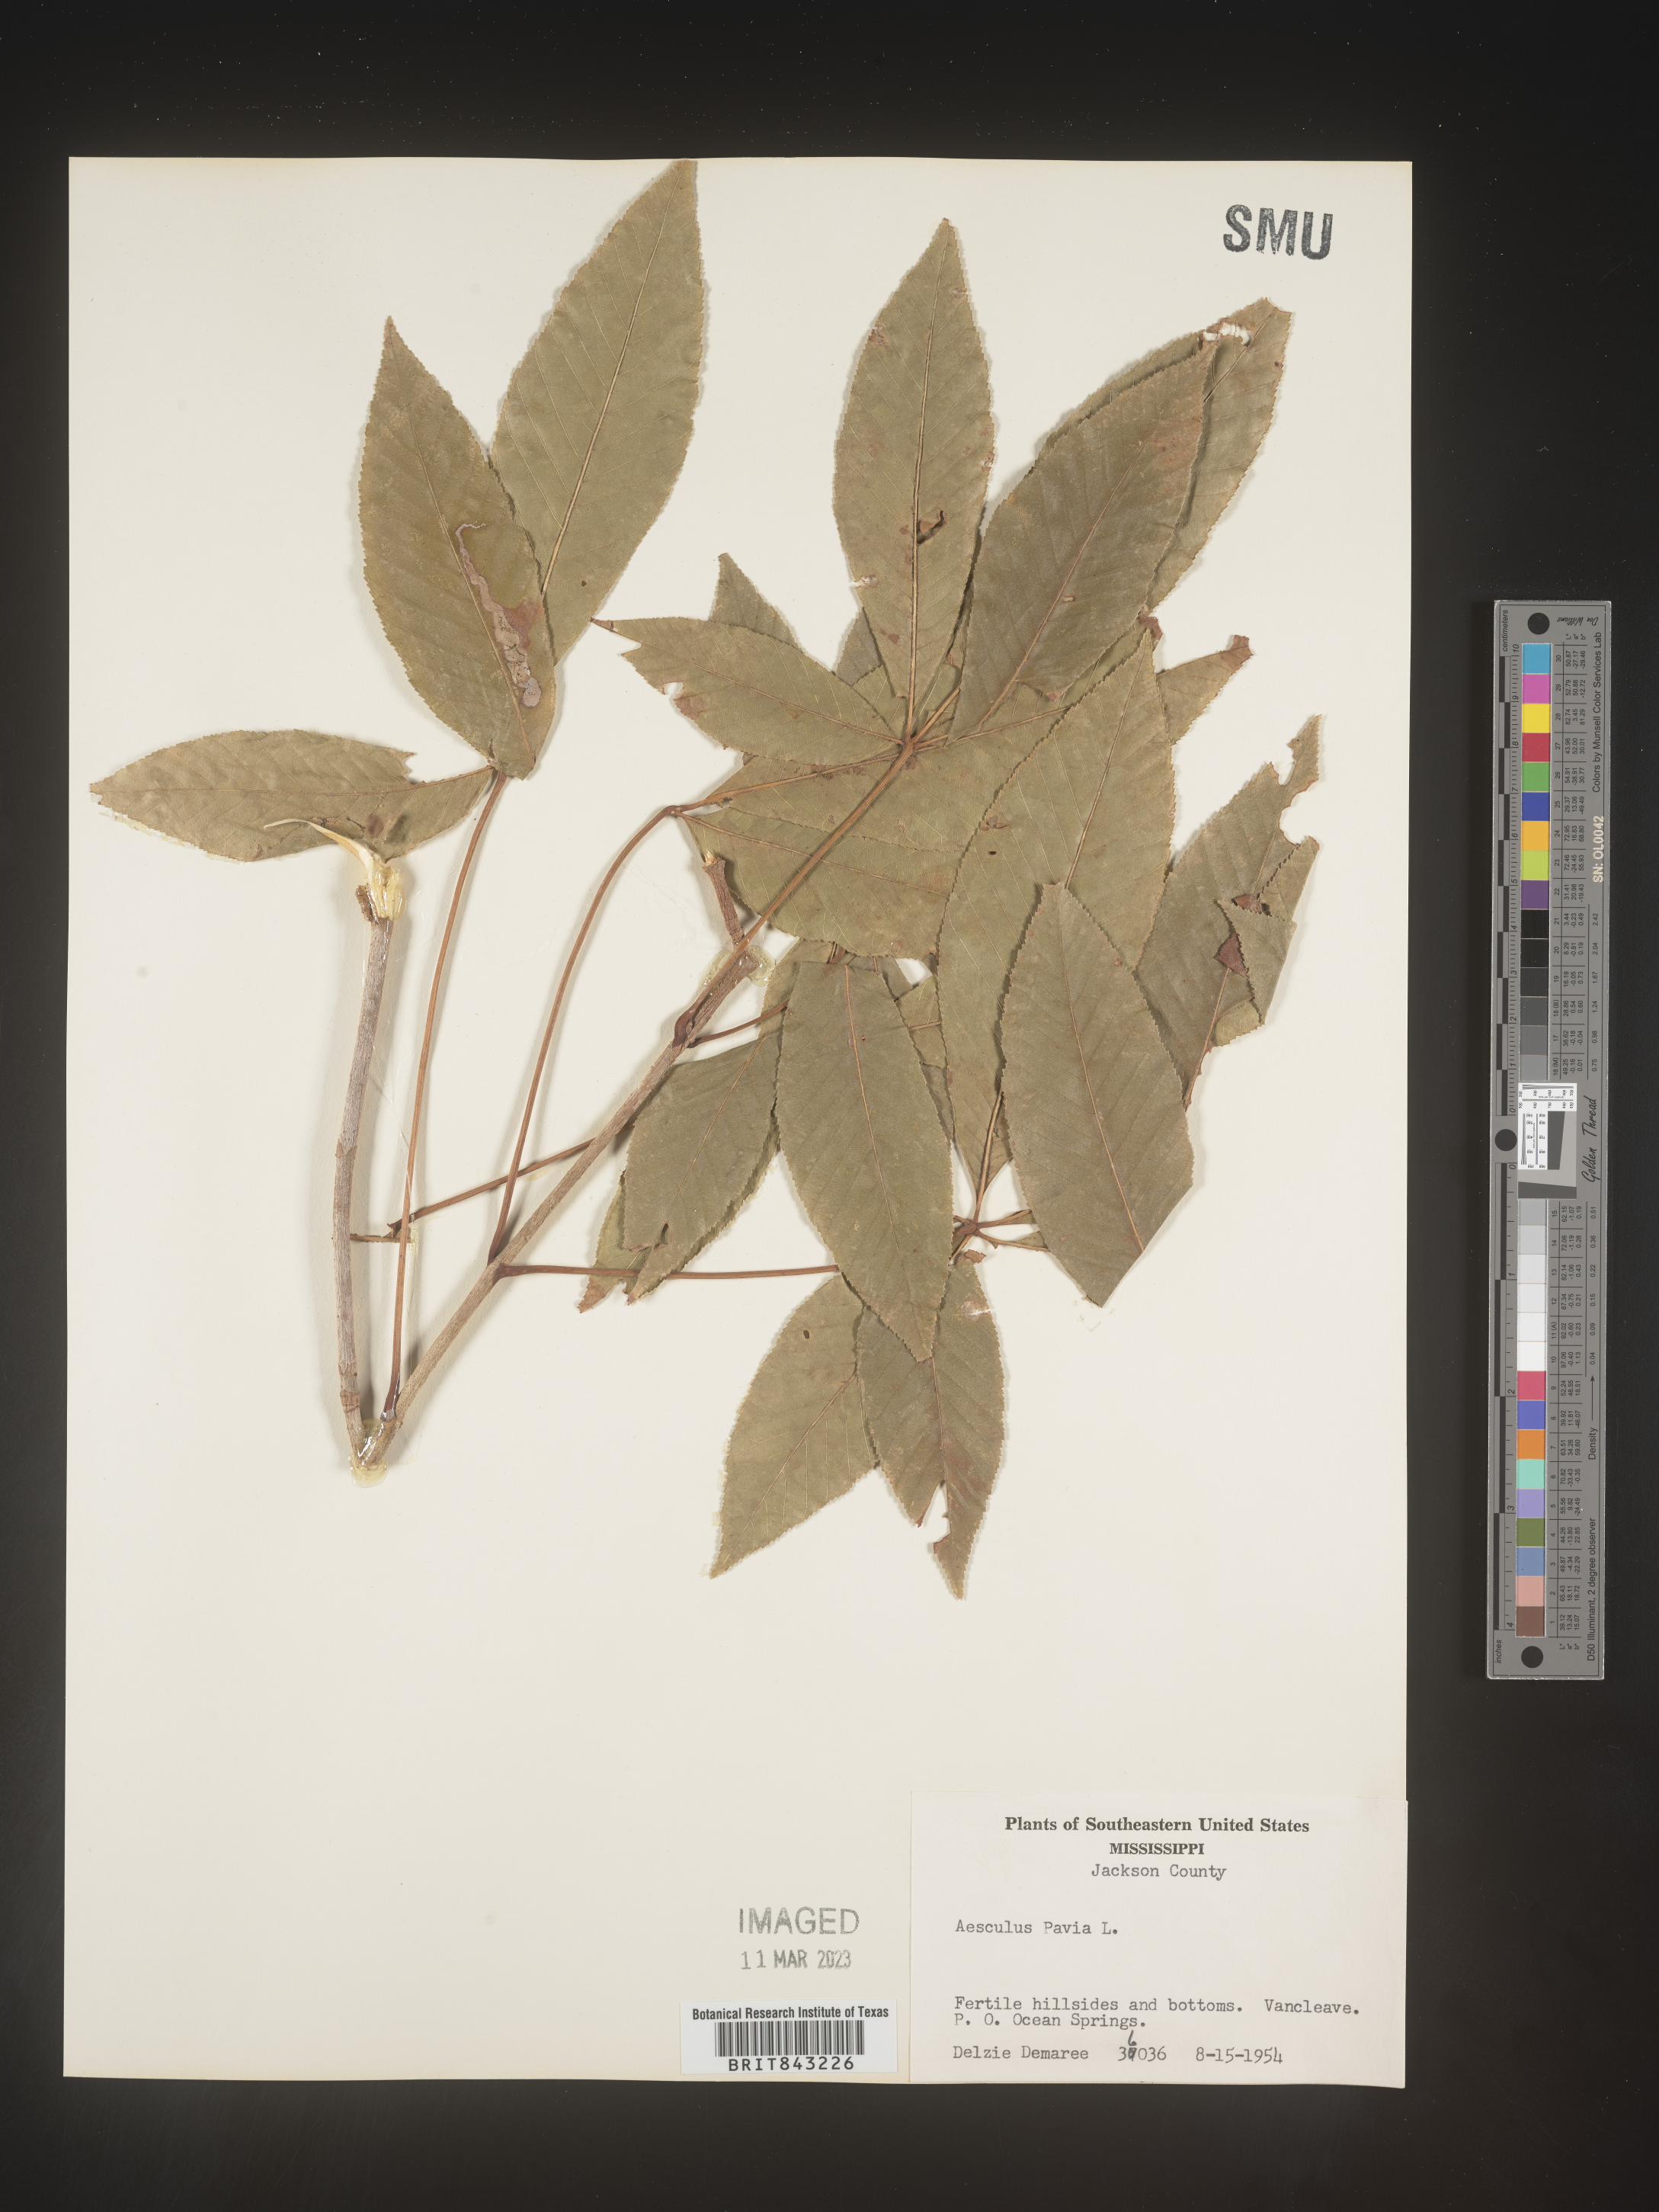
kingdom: Plantae
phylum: Tracheophyta
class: Magnoliopsida
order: Sapindales
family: Sapindaceae
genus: Aesculus
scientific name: Aesculus pavia
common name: Red buckeye
